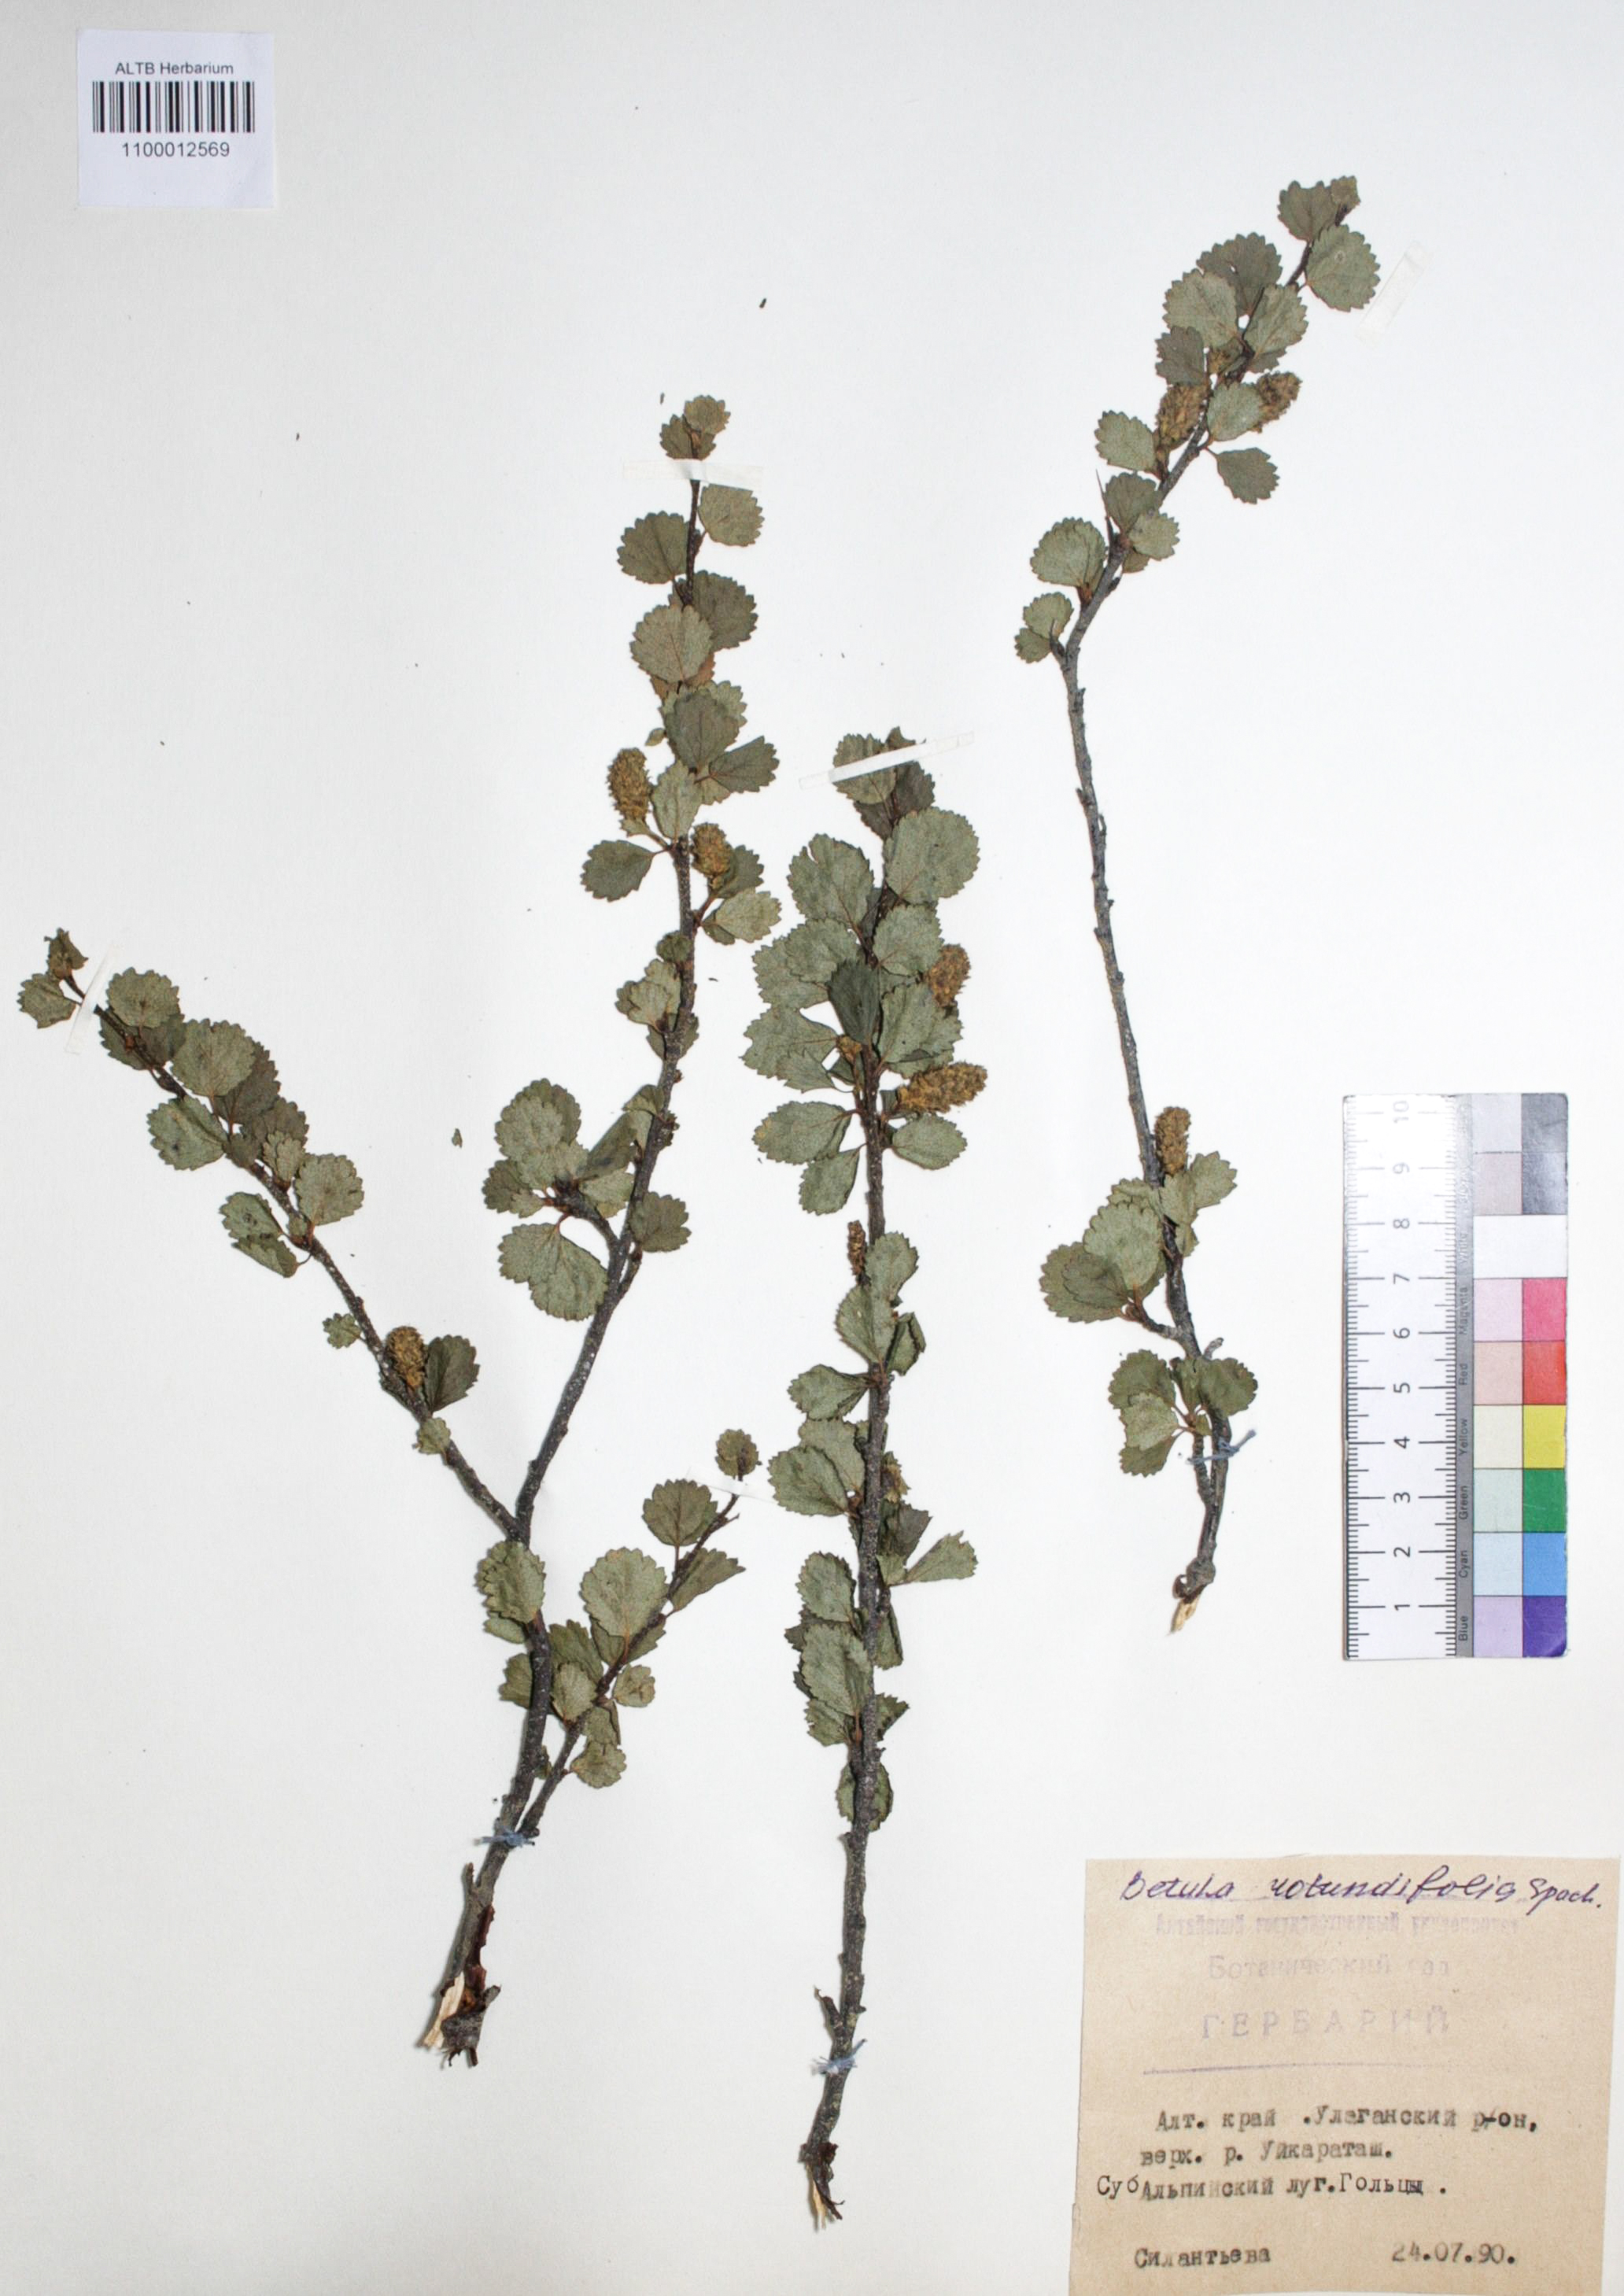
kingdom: Plantae
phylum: Tracheophyta
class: Magnoliopsida
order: Fagales
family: Betulaceae
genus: Betula
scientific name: Betula glandulosa
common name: Dwarf birch
